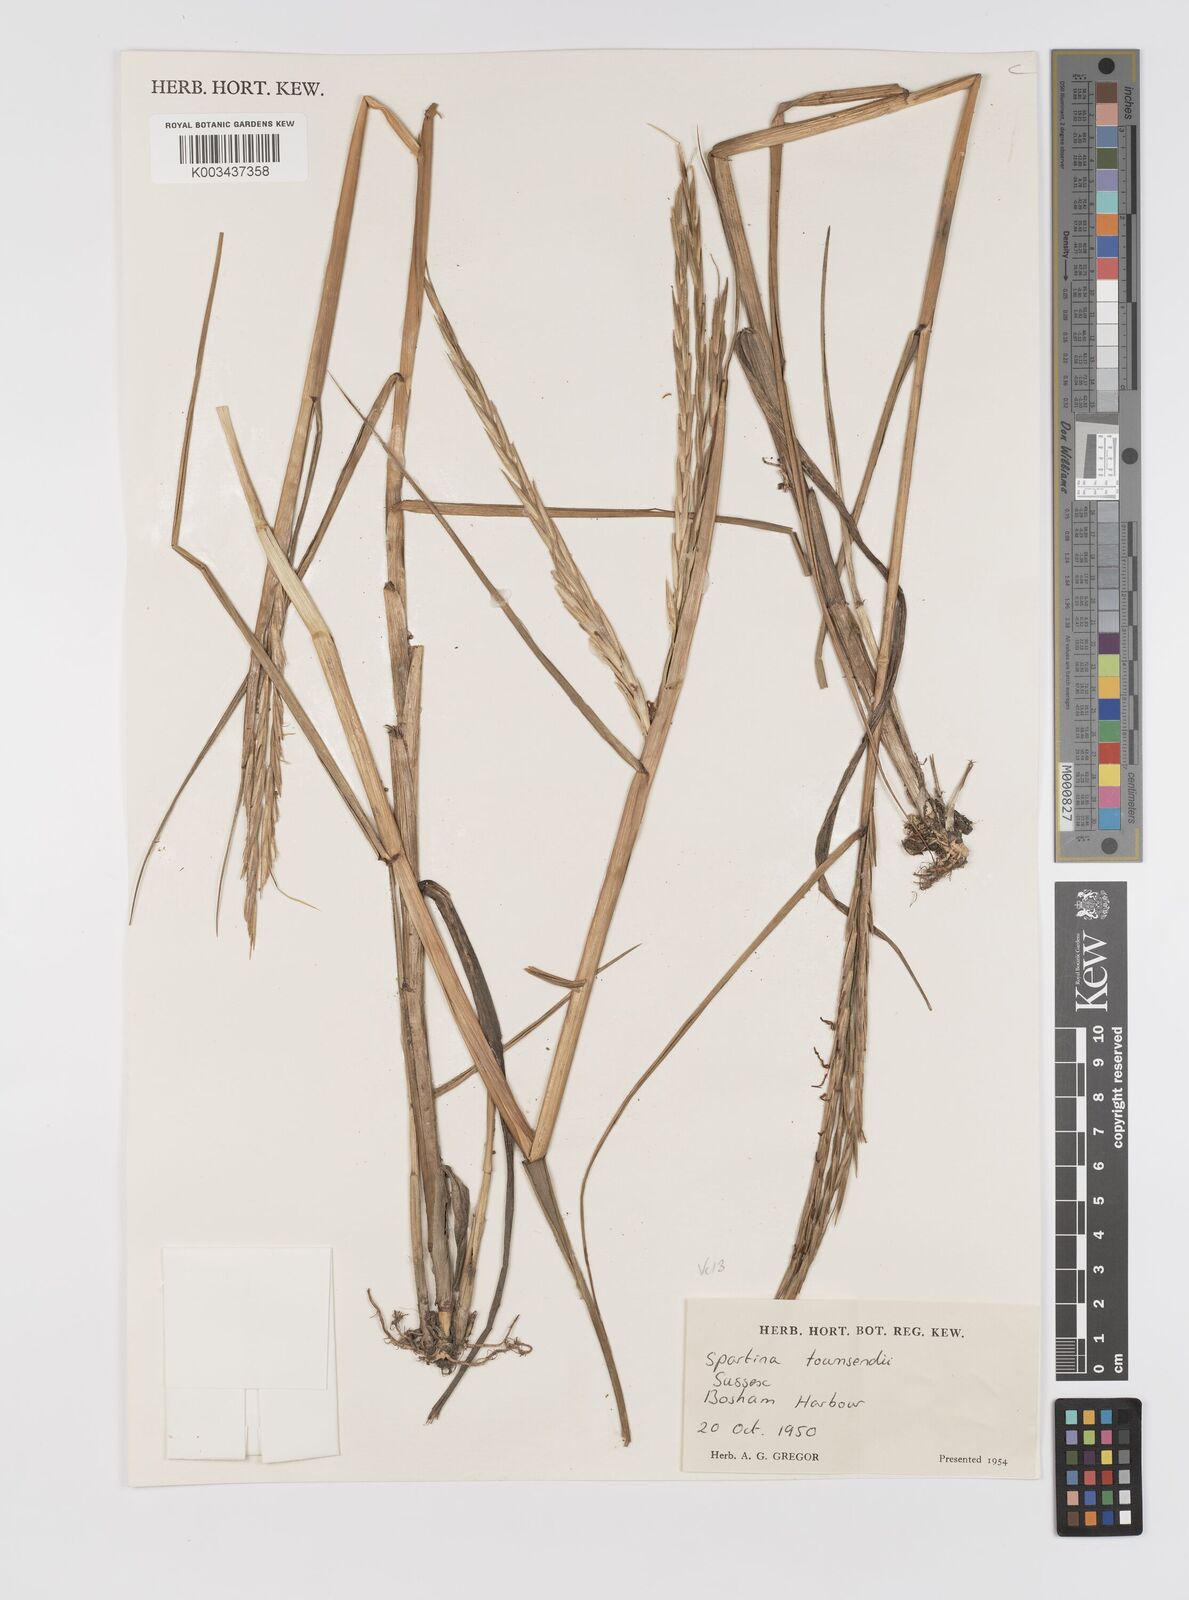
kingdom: Plantae
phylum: Tracheophyta
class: Liliopsida
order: Poales
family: Poaceae
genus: Sporobolus
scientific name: Sporobolus townsendii
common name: Townsend's cordgrass
